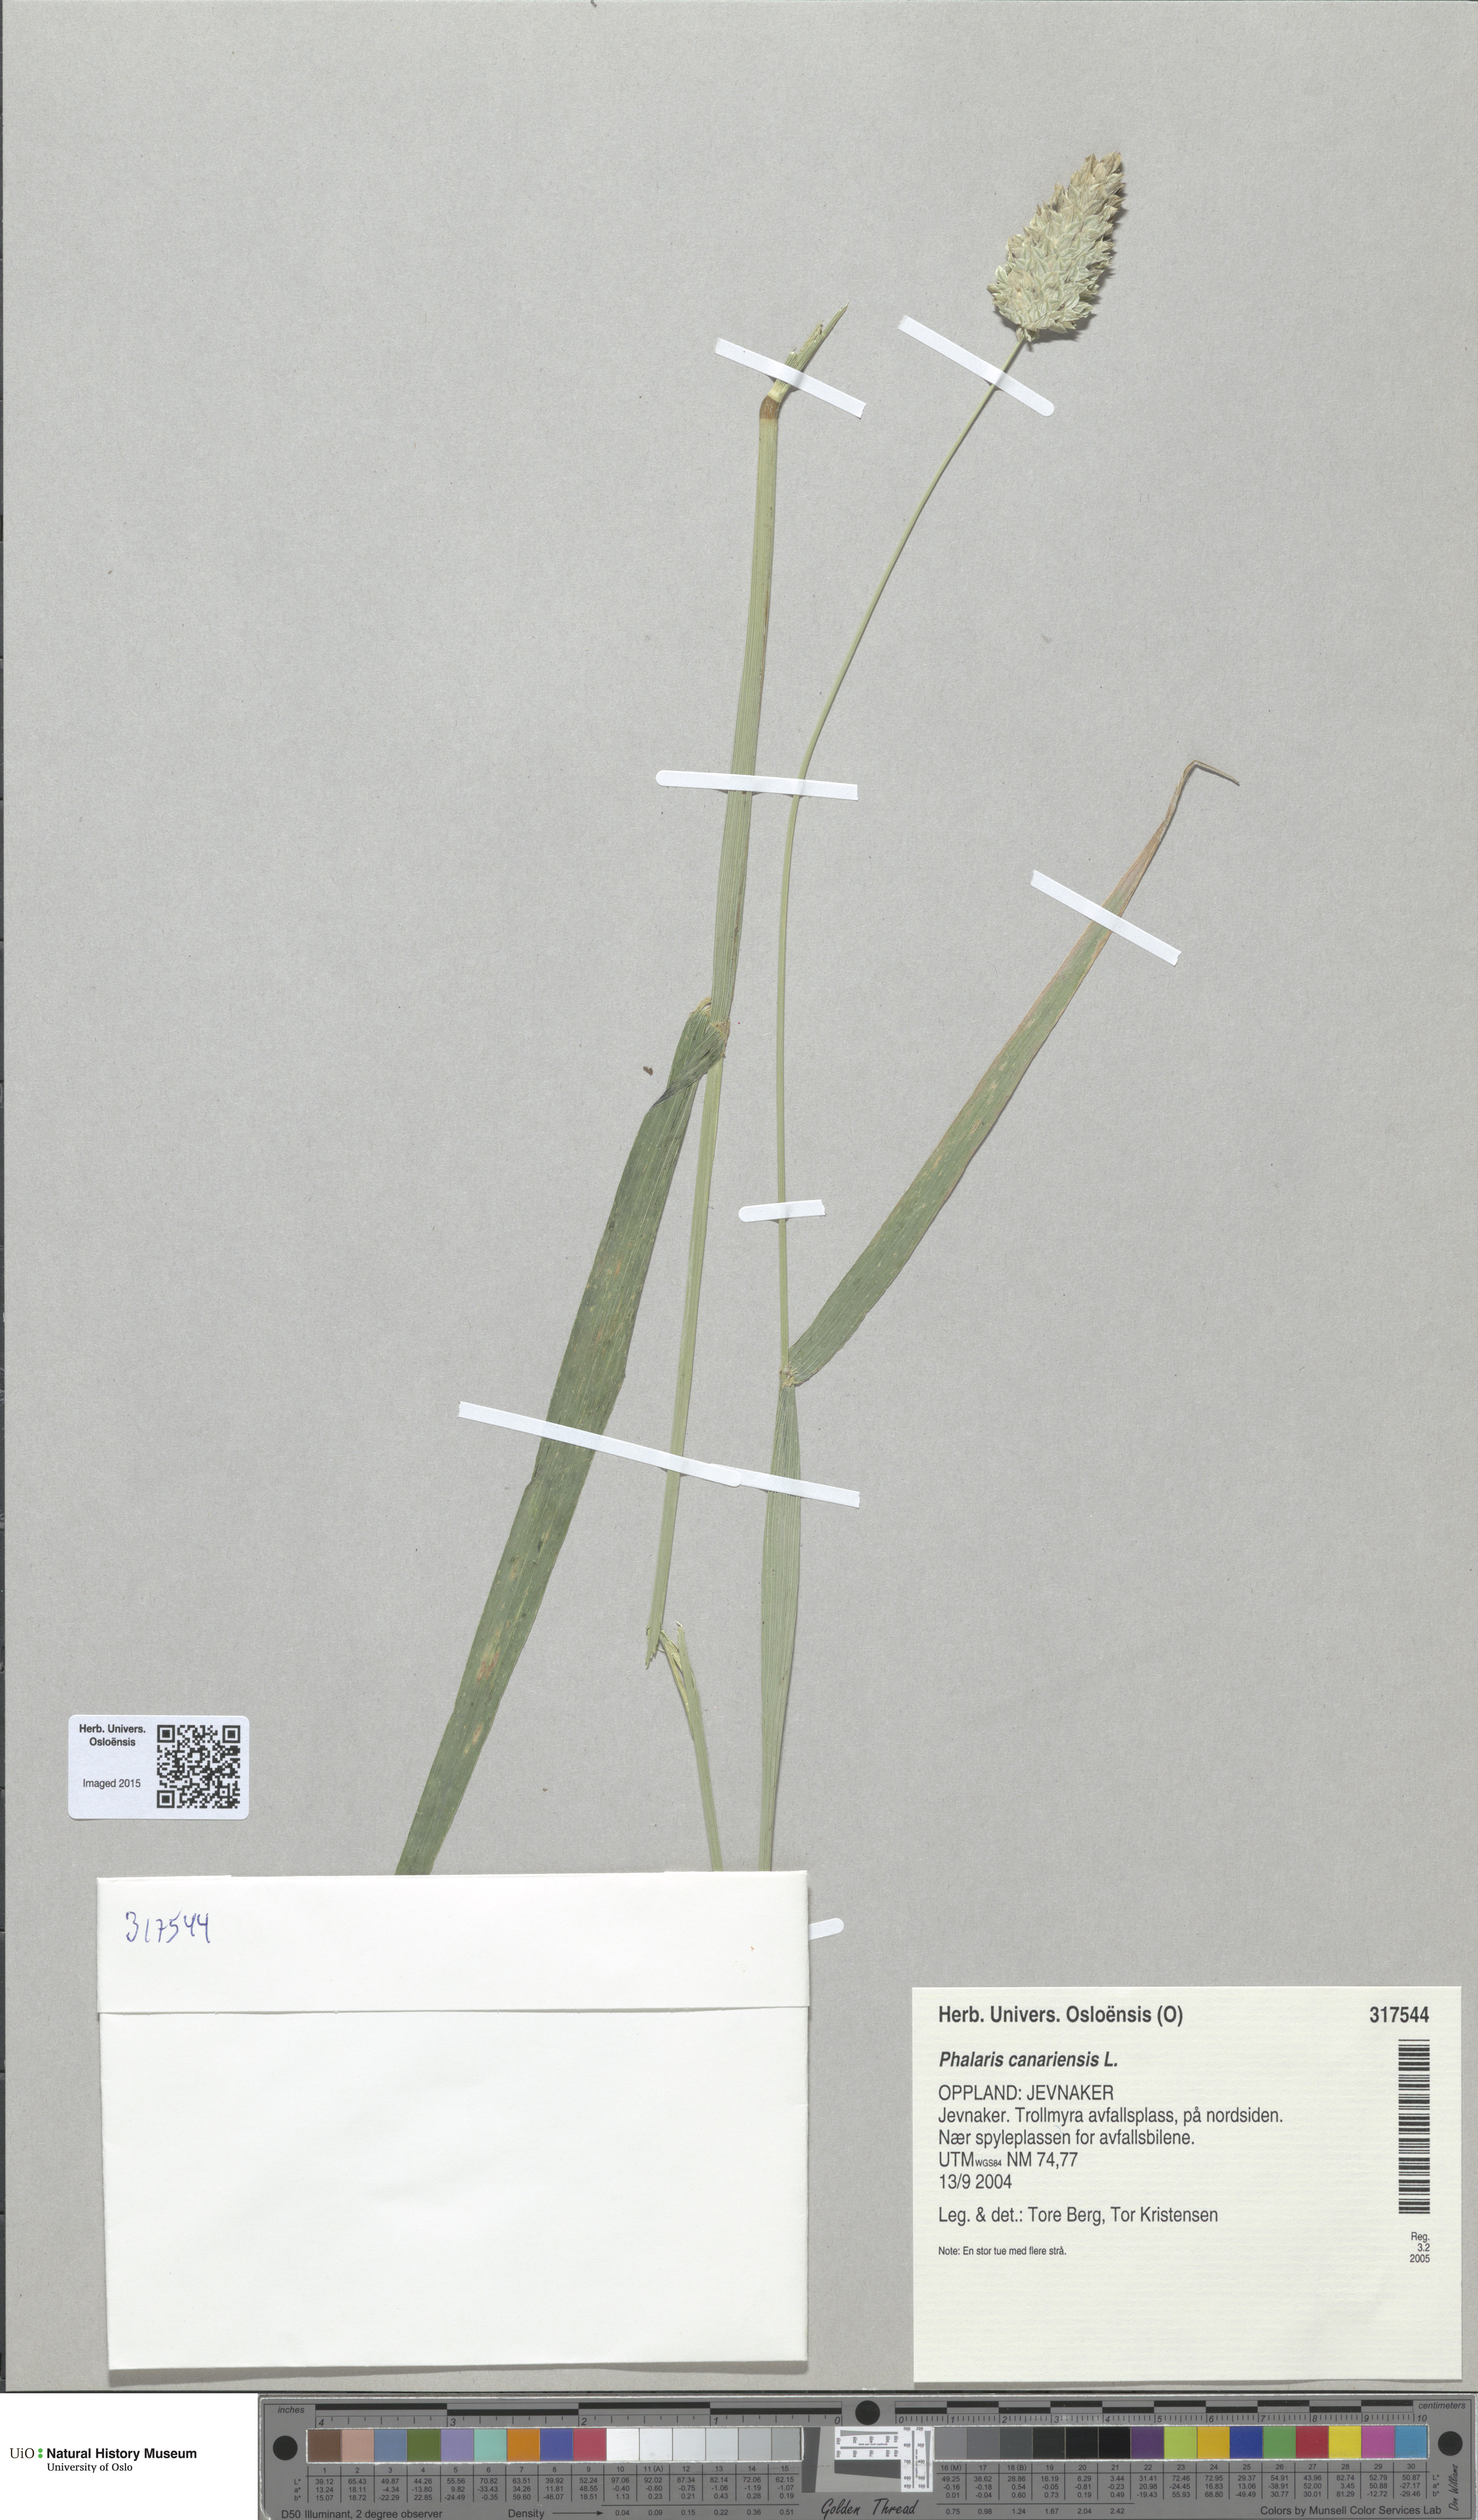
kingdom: Plantae
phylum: Tracheophyta
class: Liliopsida
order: Poales
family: Poaceae
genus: Phalaris
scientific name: Phalaris canariensis
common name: Annual canarygrass
